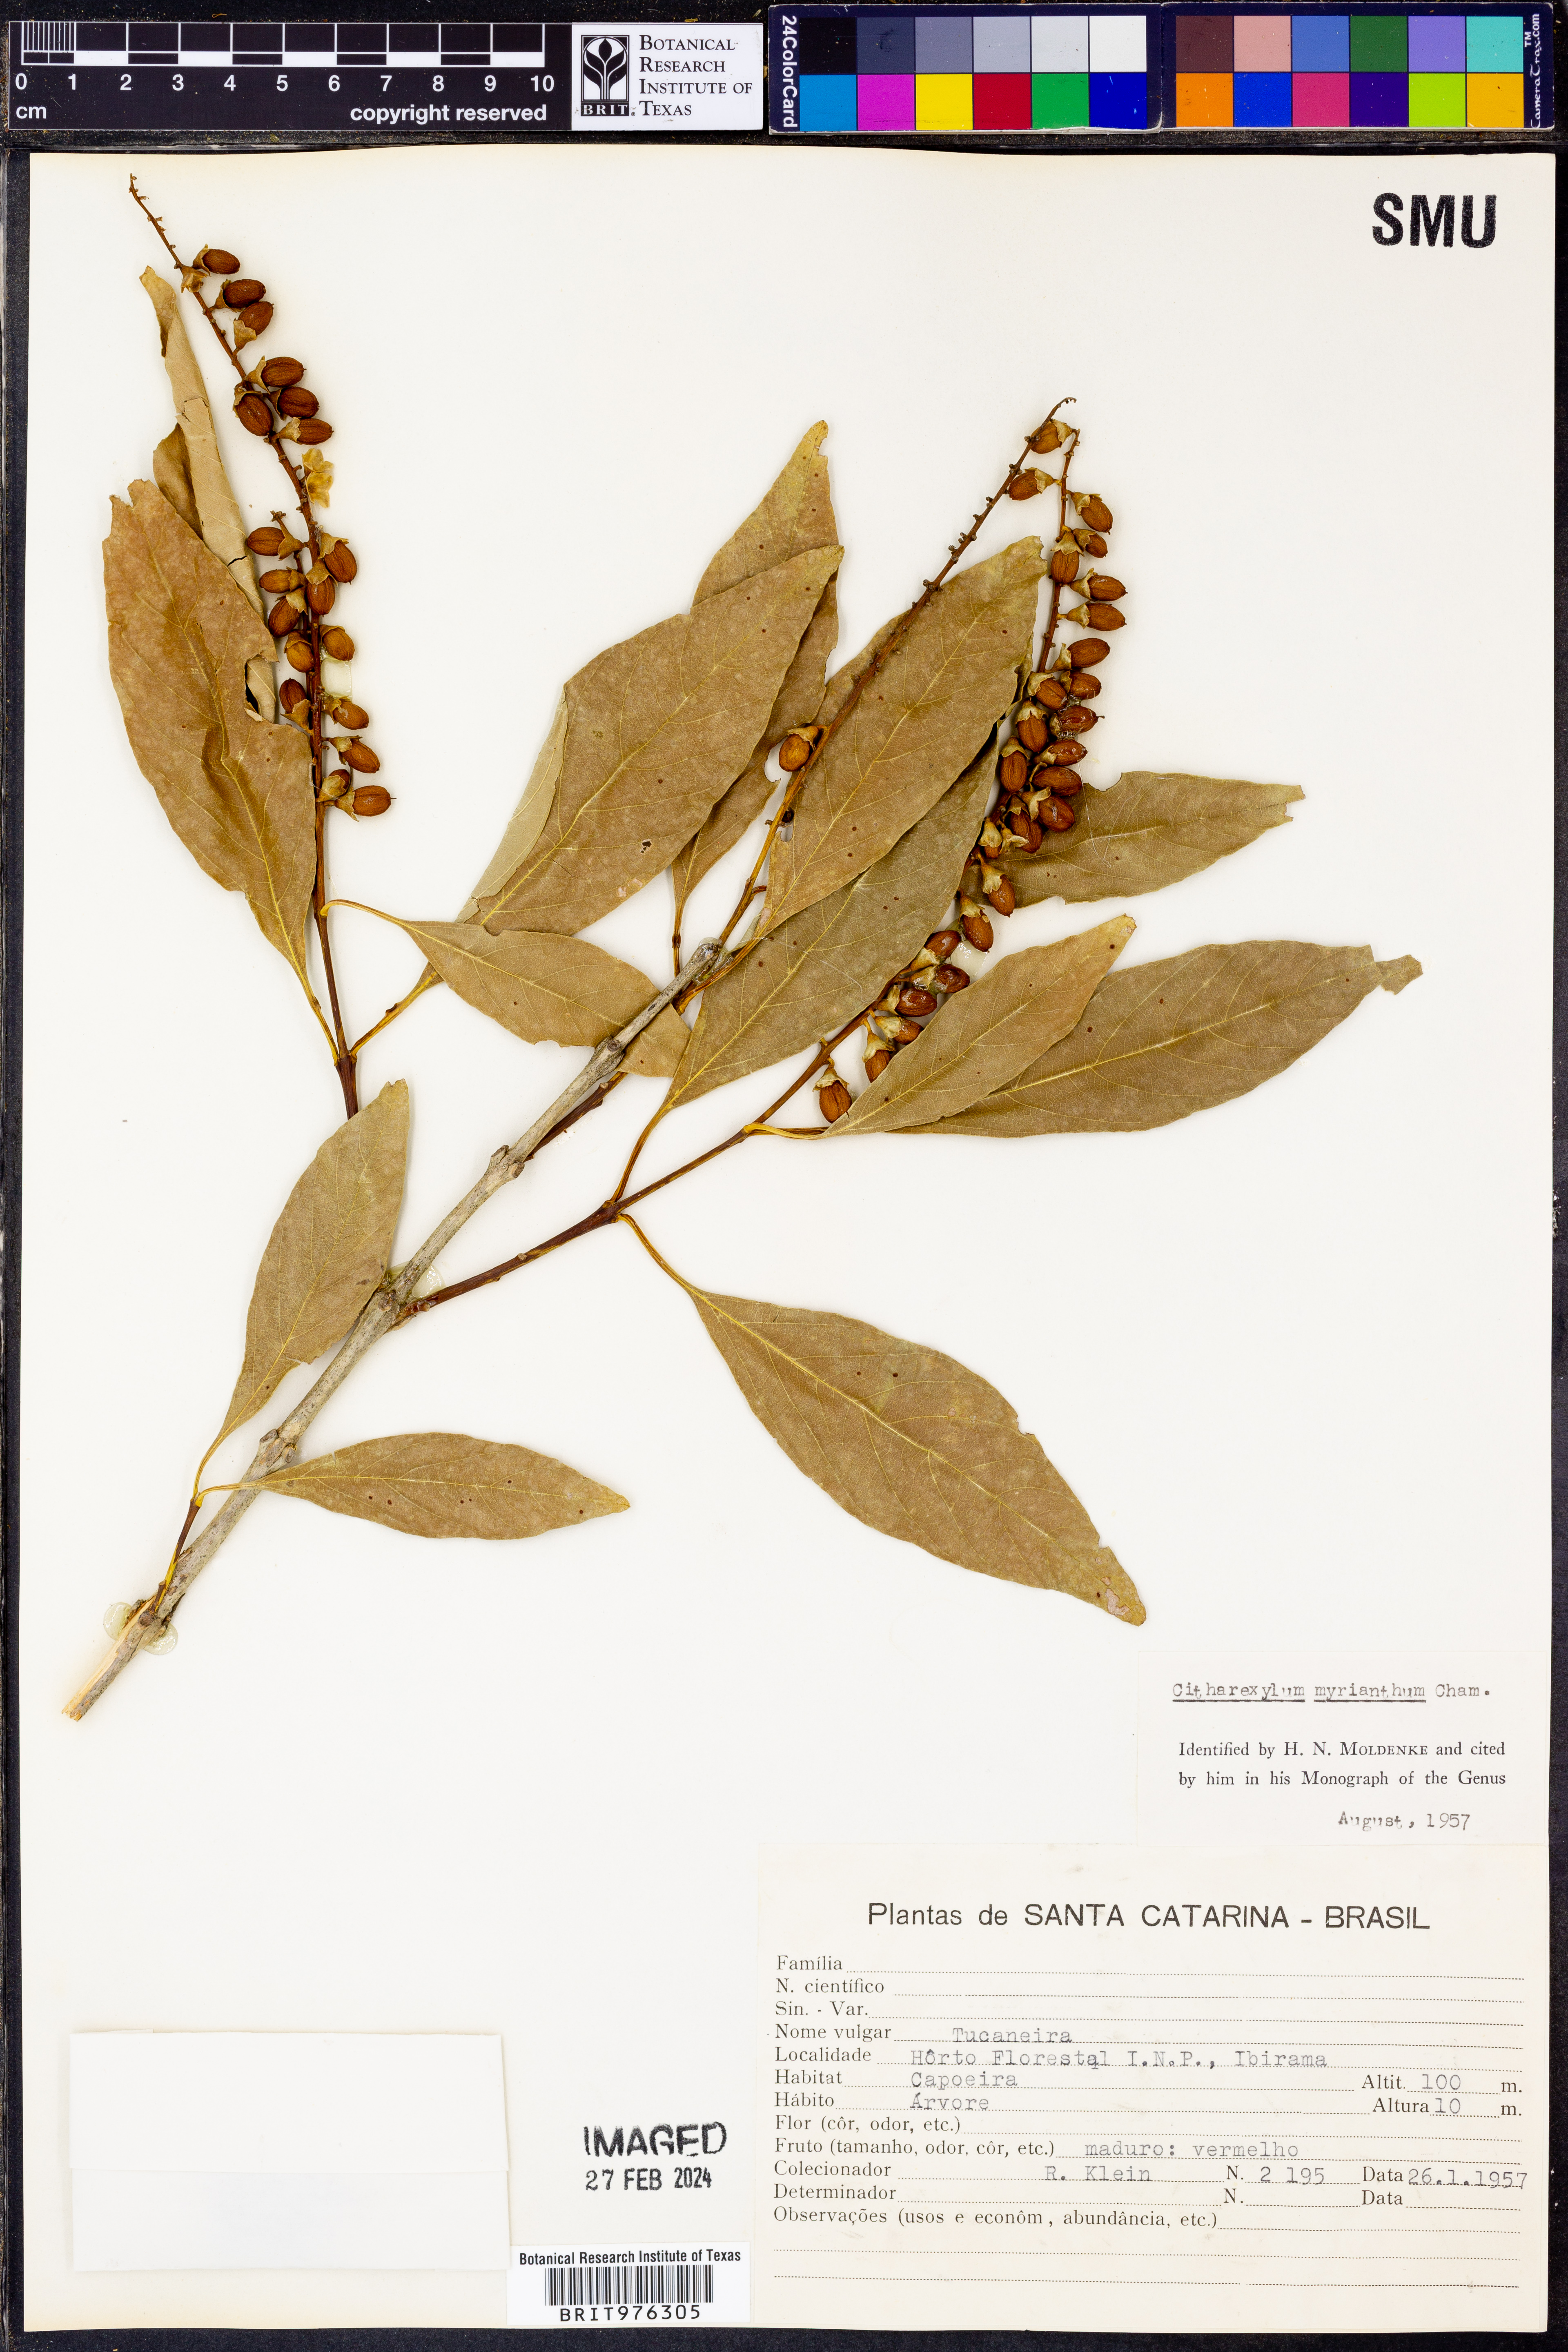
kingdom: Plantae
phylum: Tracheophyta
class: Magnoliopsida
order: Lamiales
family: Verbenaceae
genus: Citharexylum
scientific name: Citharexylum
